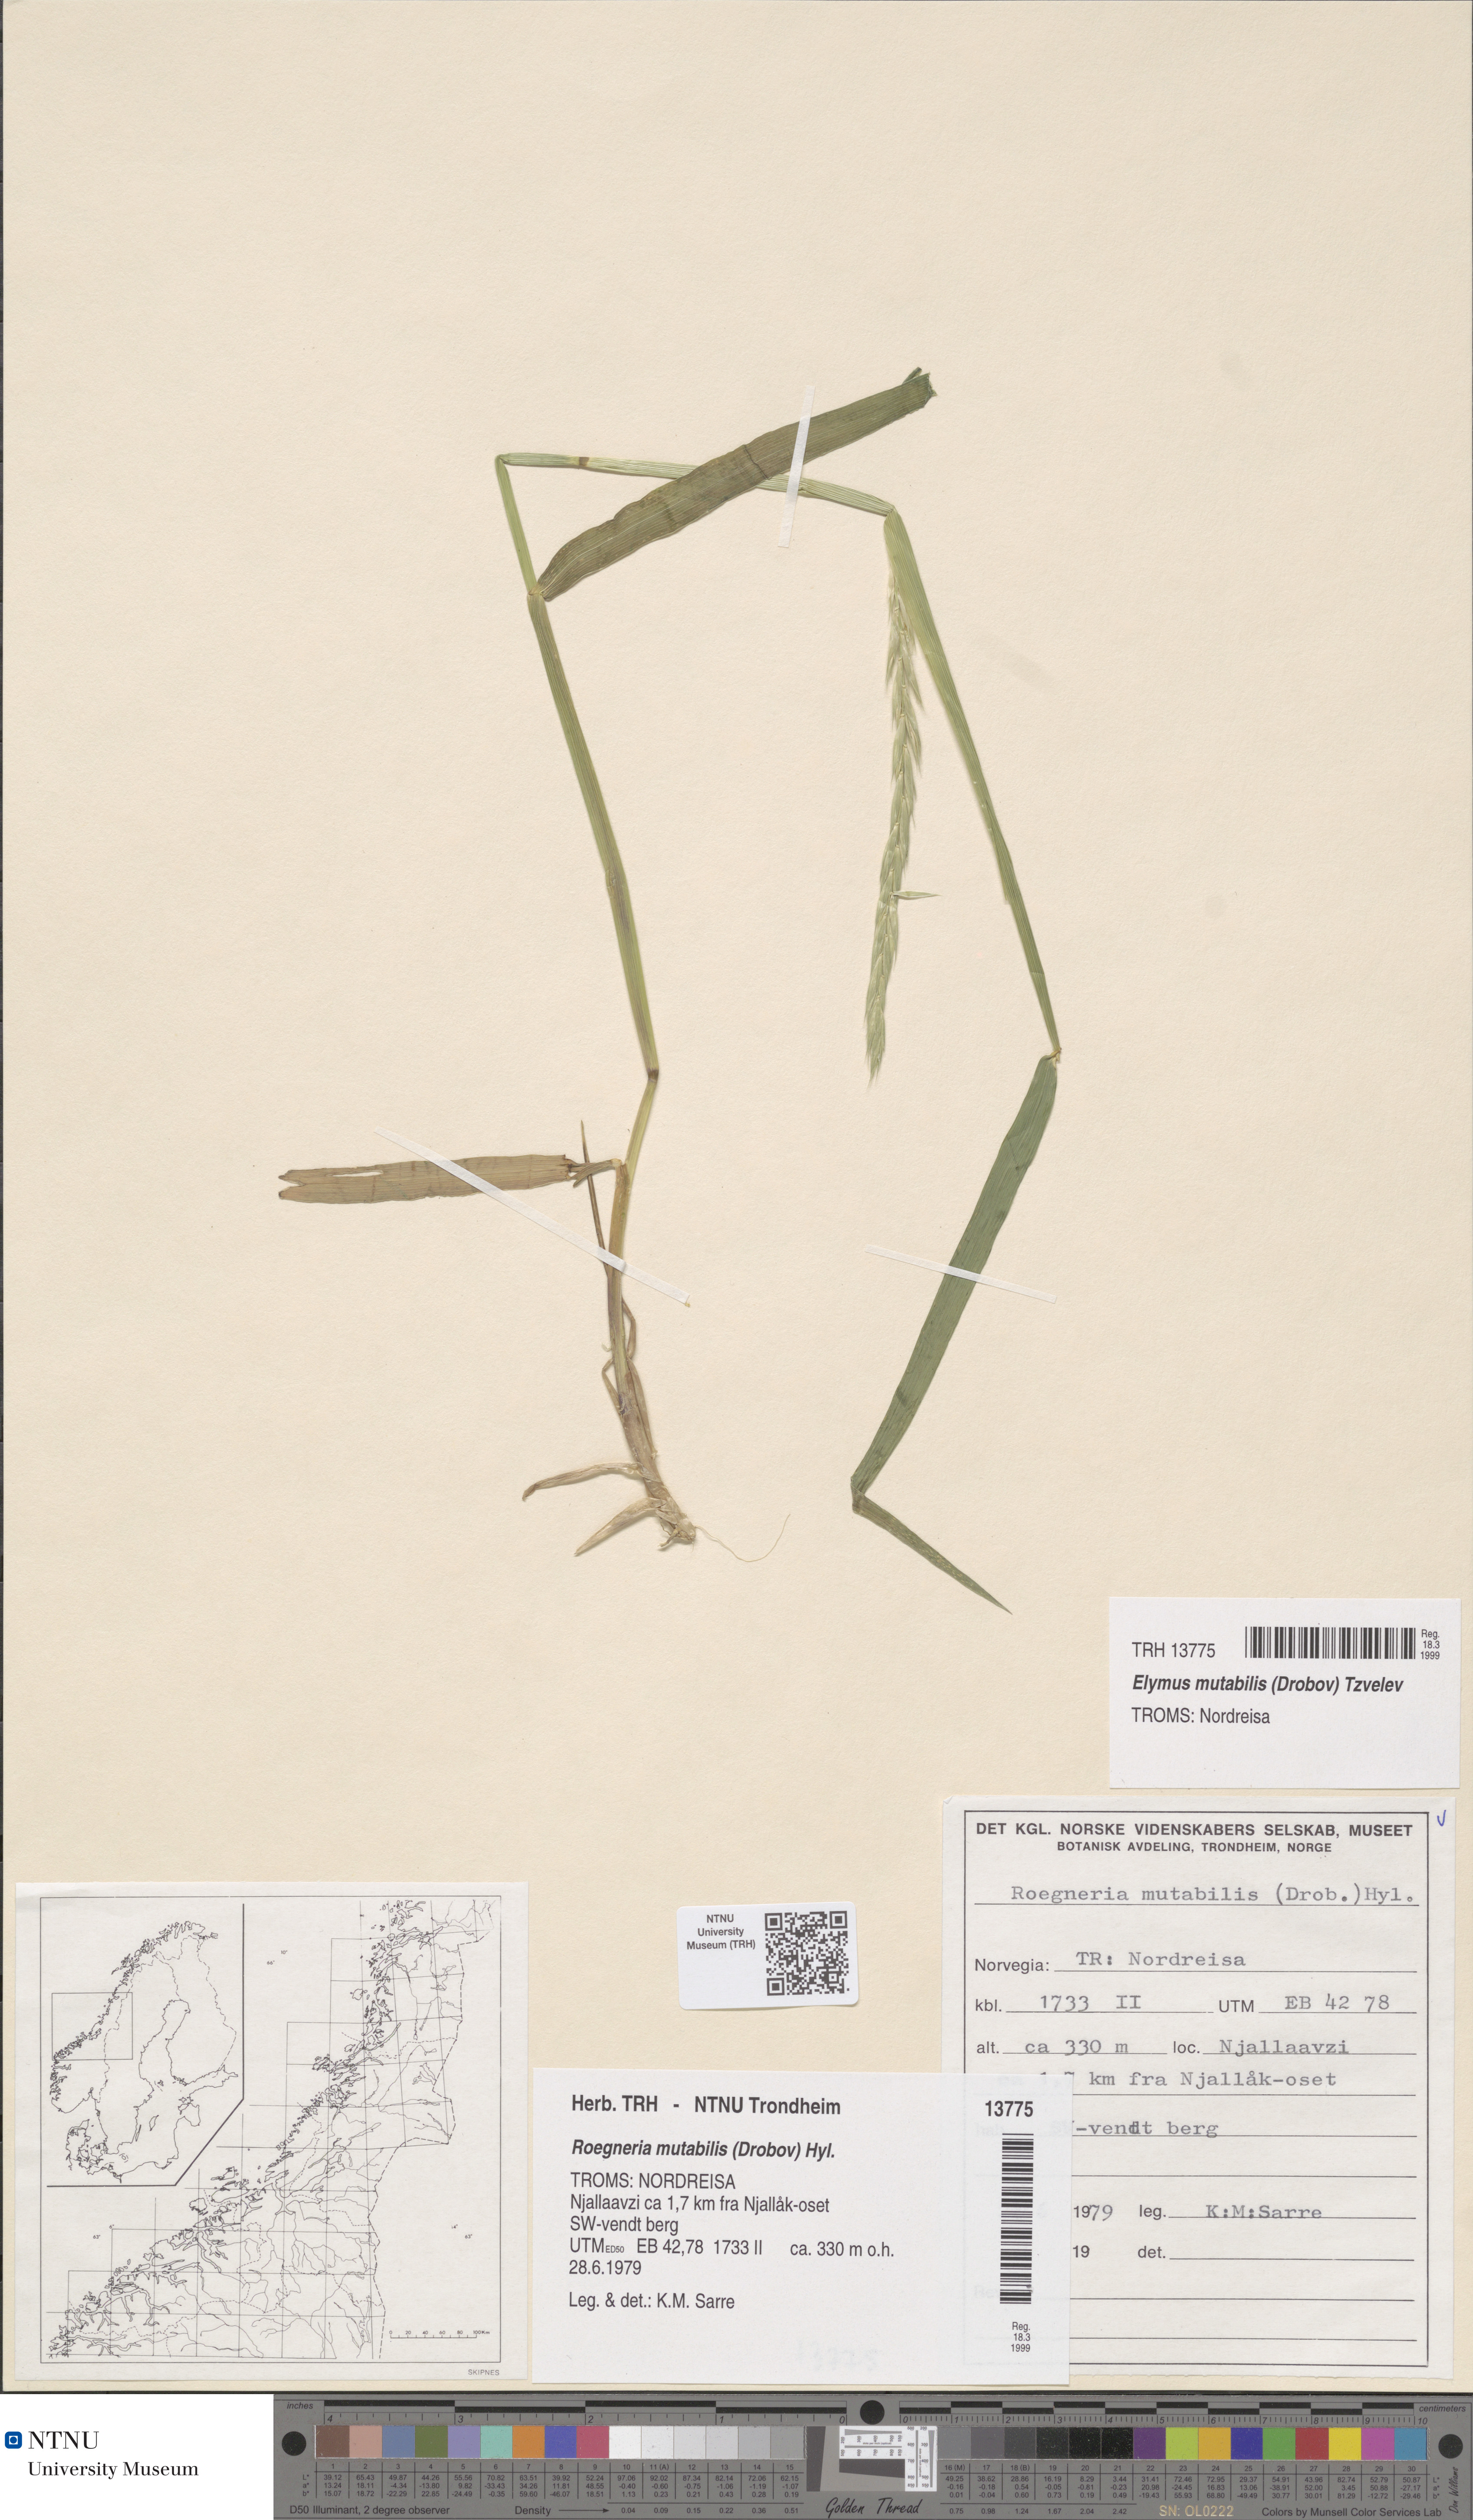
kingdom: Plantae
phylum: Tracheophyta
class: Liliopsida
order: Poales
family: Poaceae
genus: Elymus
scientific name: Elymus mutabilis
